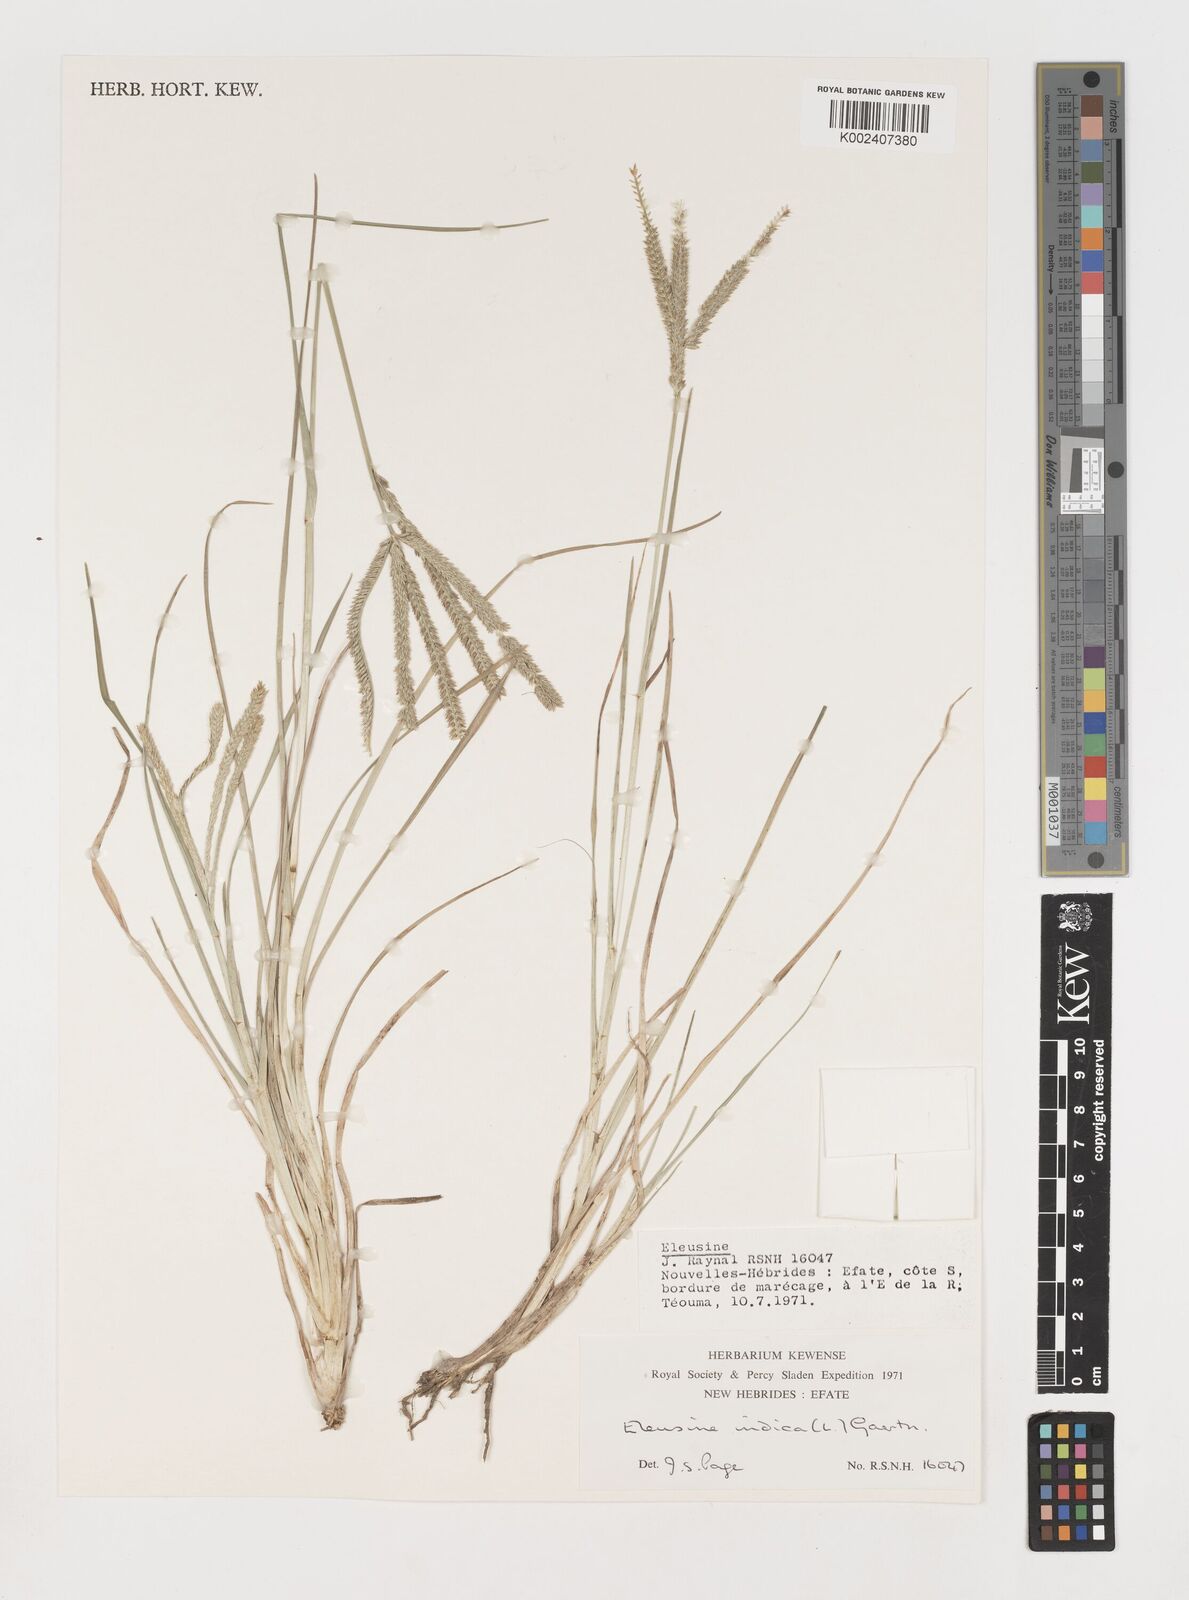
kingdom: Plantae
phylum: Tracheophyta
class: Liliopsida
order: Poales
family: Poaceae
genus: Eleusine
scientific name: Eleusine indica
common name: Yard-grass
